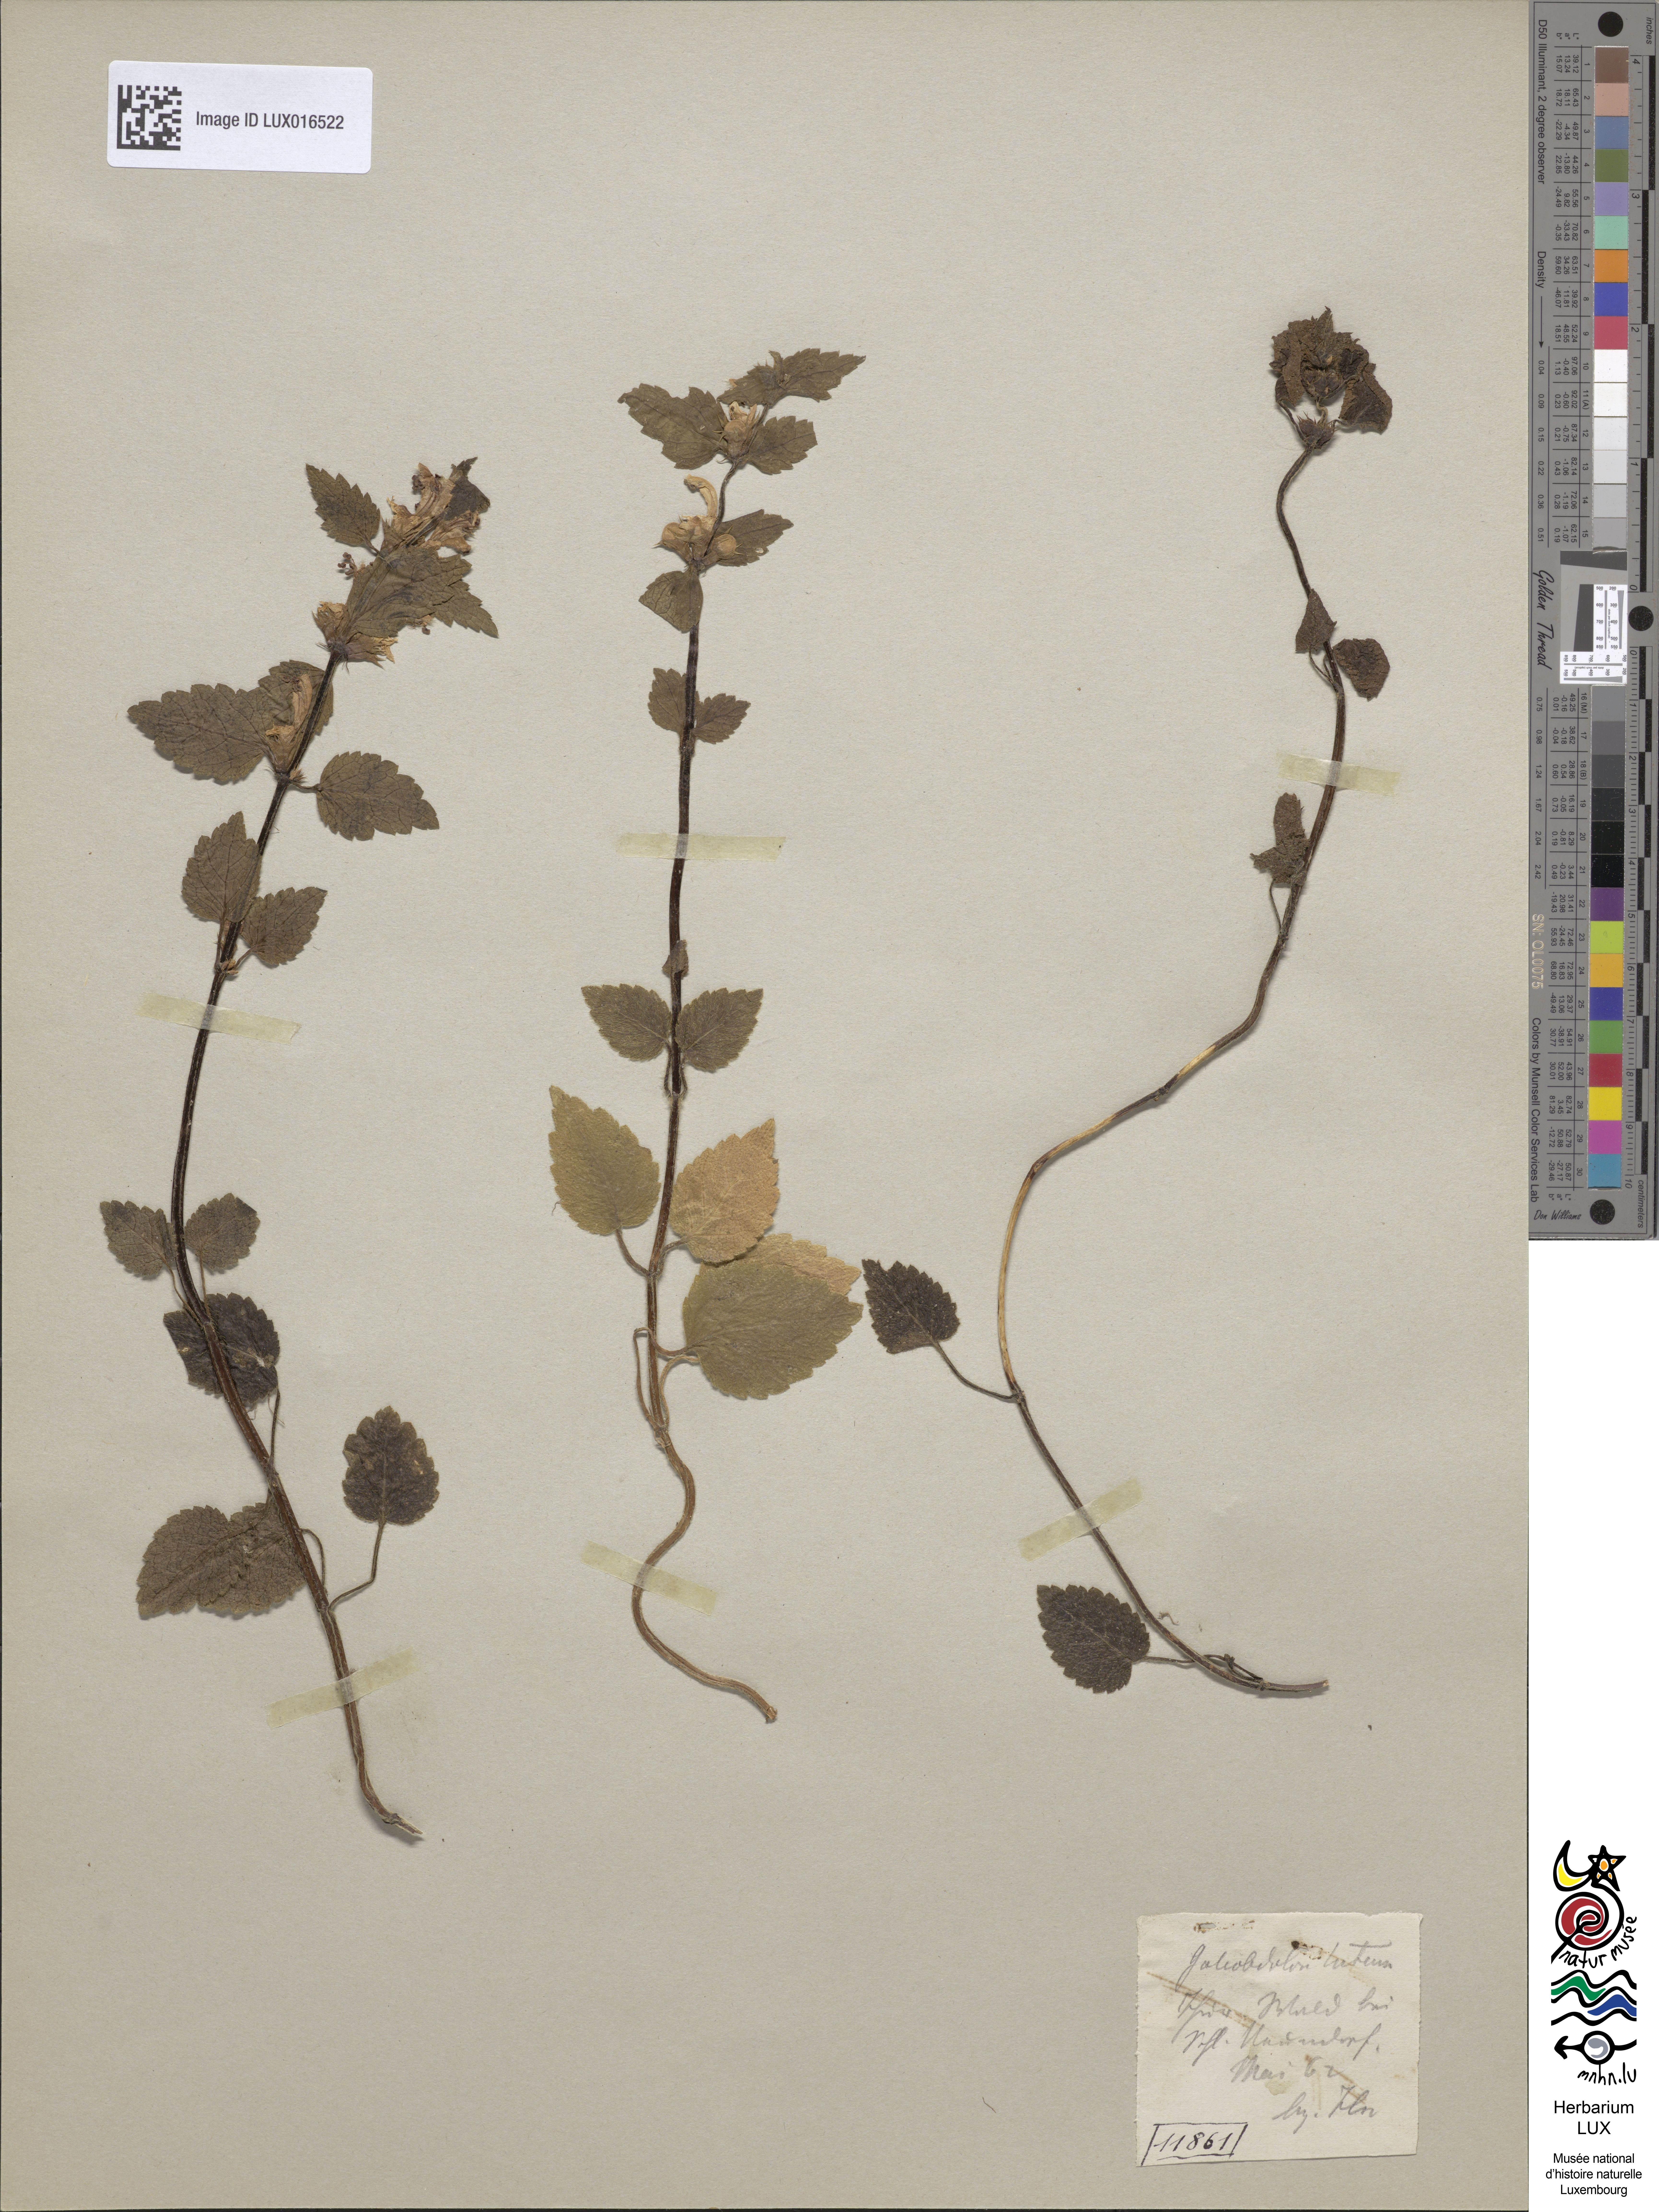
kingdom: Plantae
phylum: Tracheophyta
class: Magnoliopsida
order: Lamiales
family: Lamiaceae
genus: Lamium
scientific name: Lamium galeobdolon
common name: Yellow archangel
